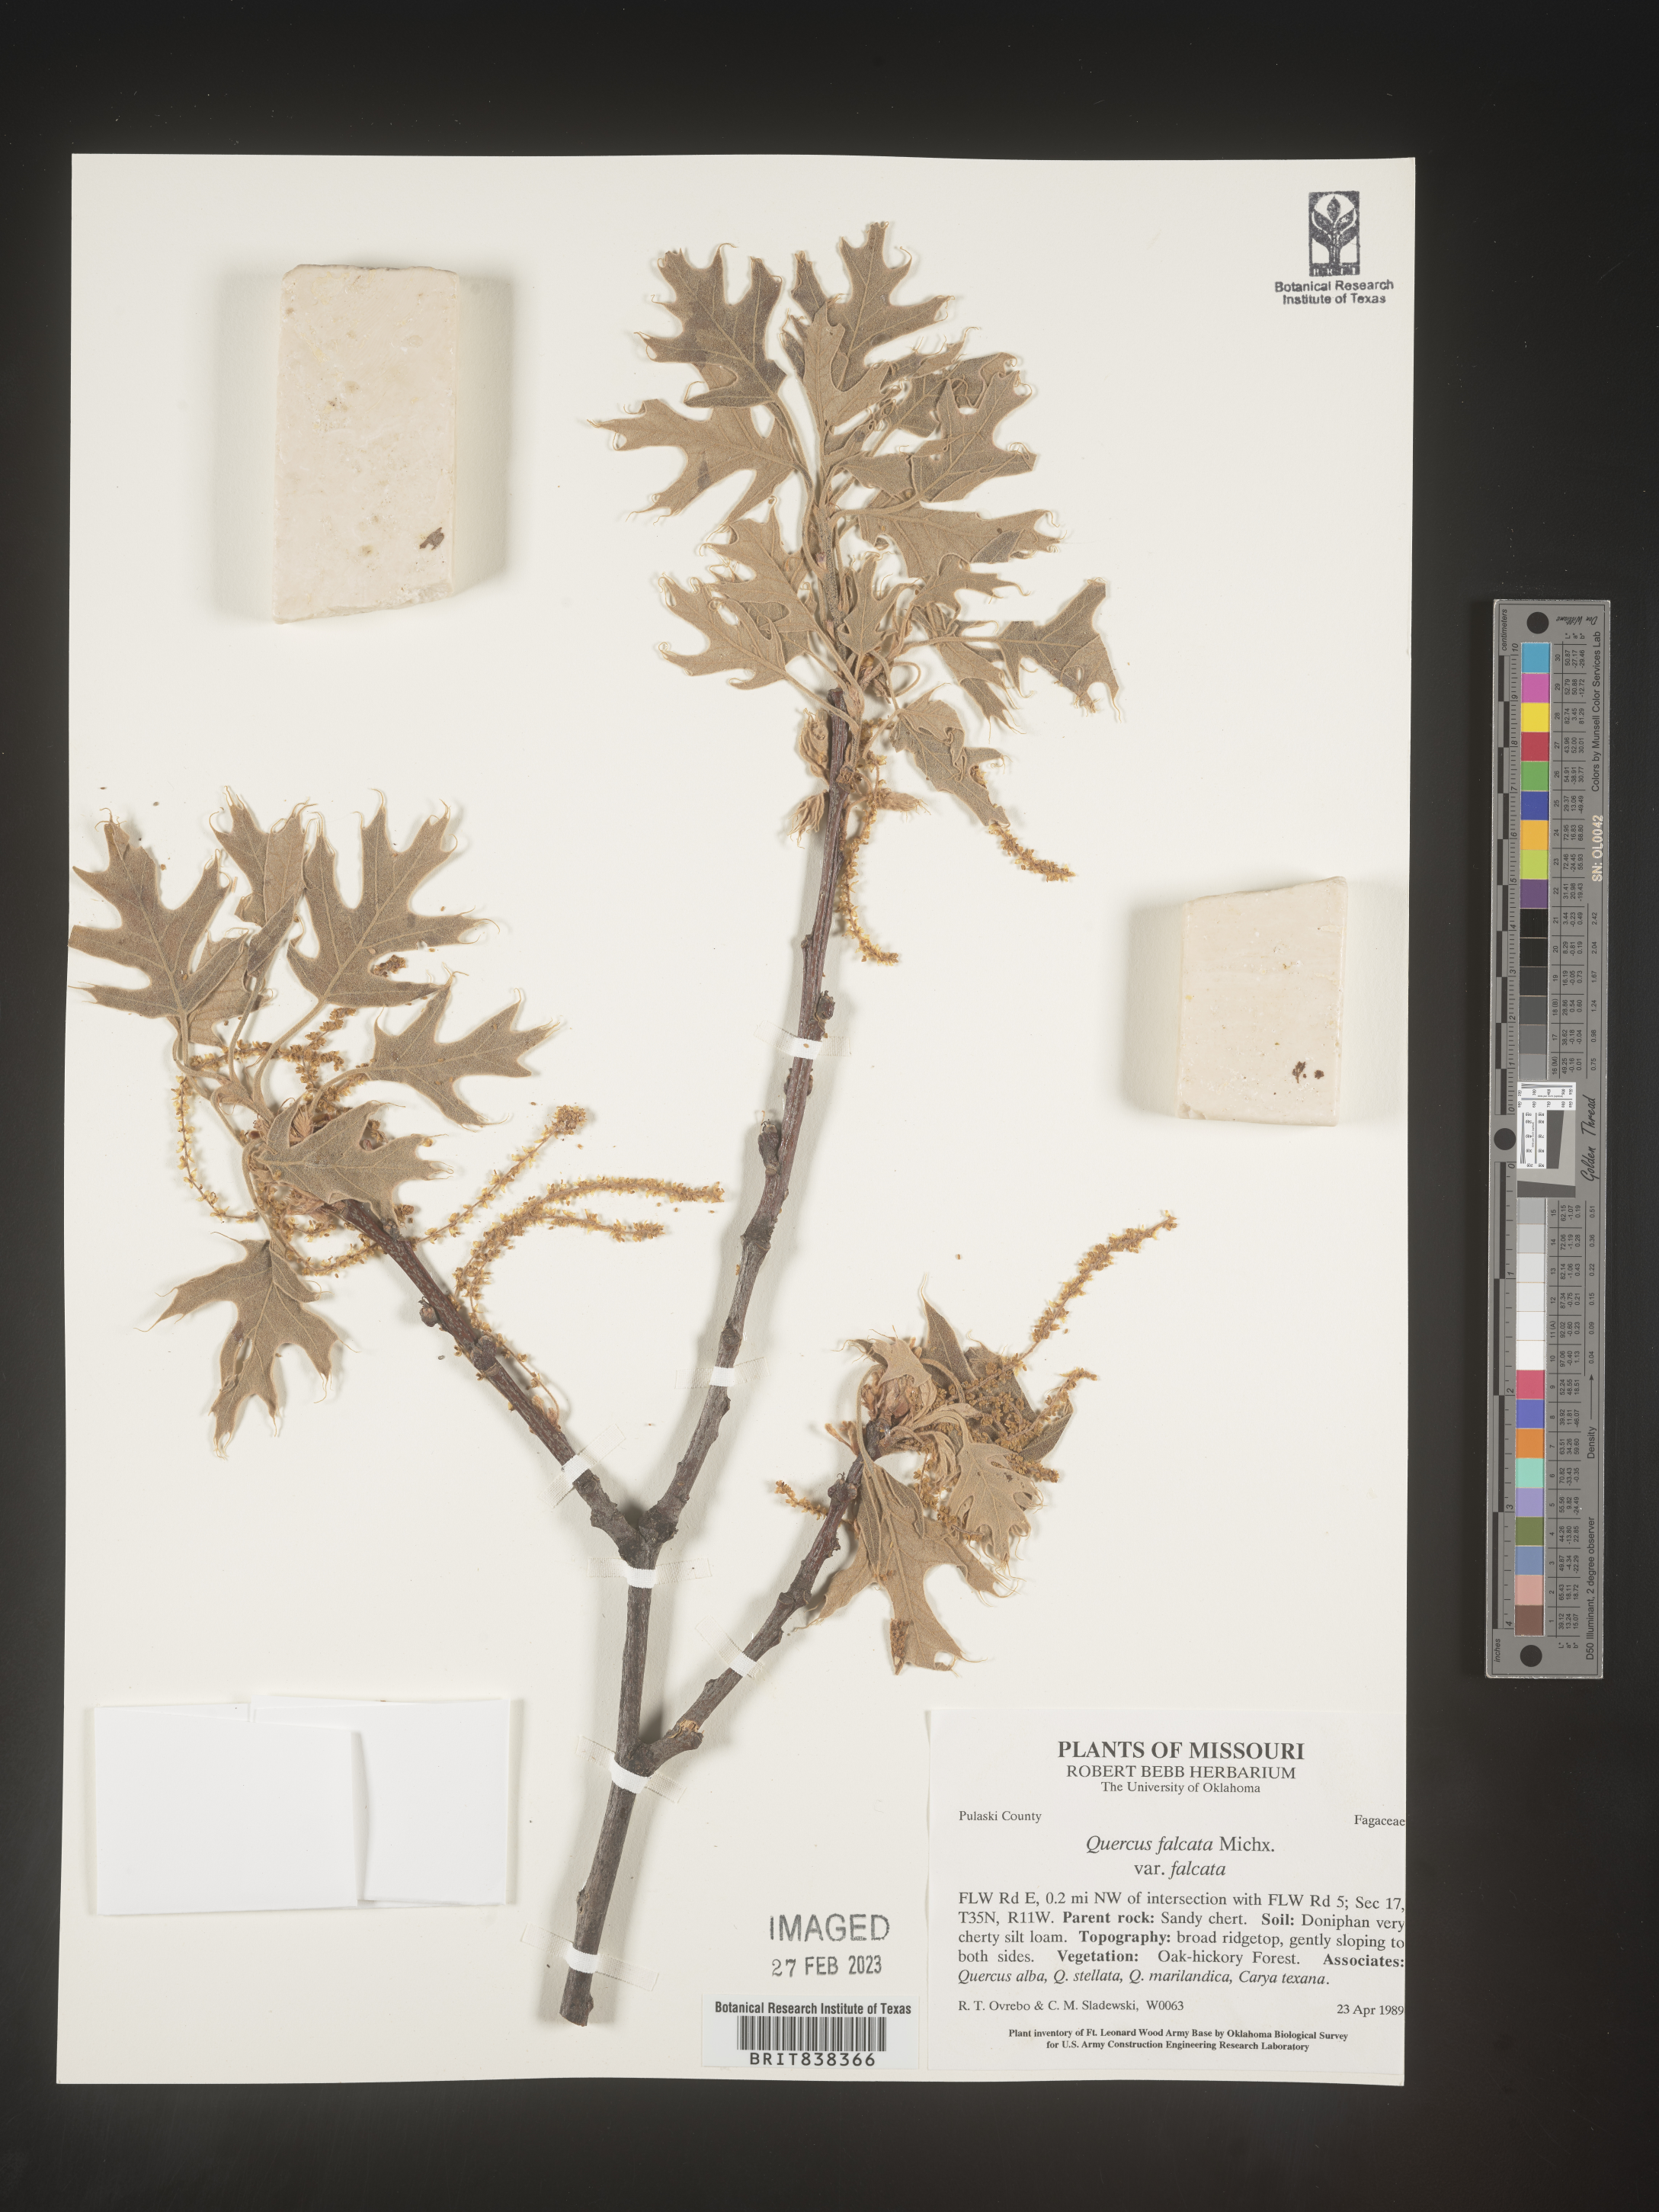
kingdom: Plantae
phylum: Tracheophyta
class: Magnoliopsida
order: Fagales
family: Fagaceae
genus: Quercus
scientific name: Quercus falcata
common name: Southern red oak
